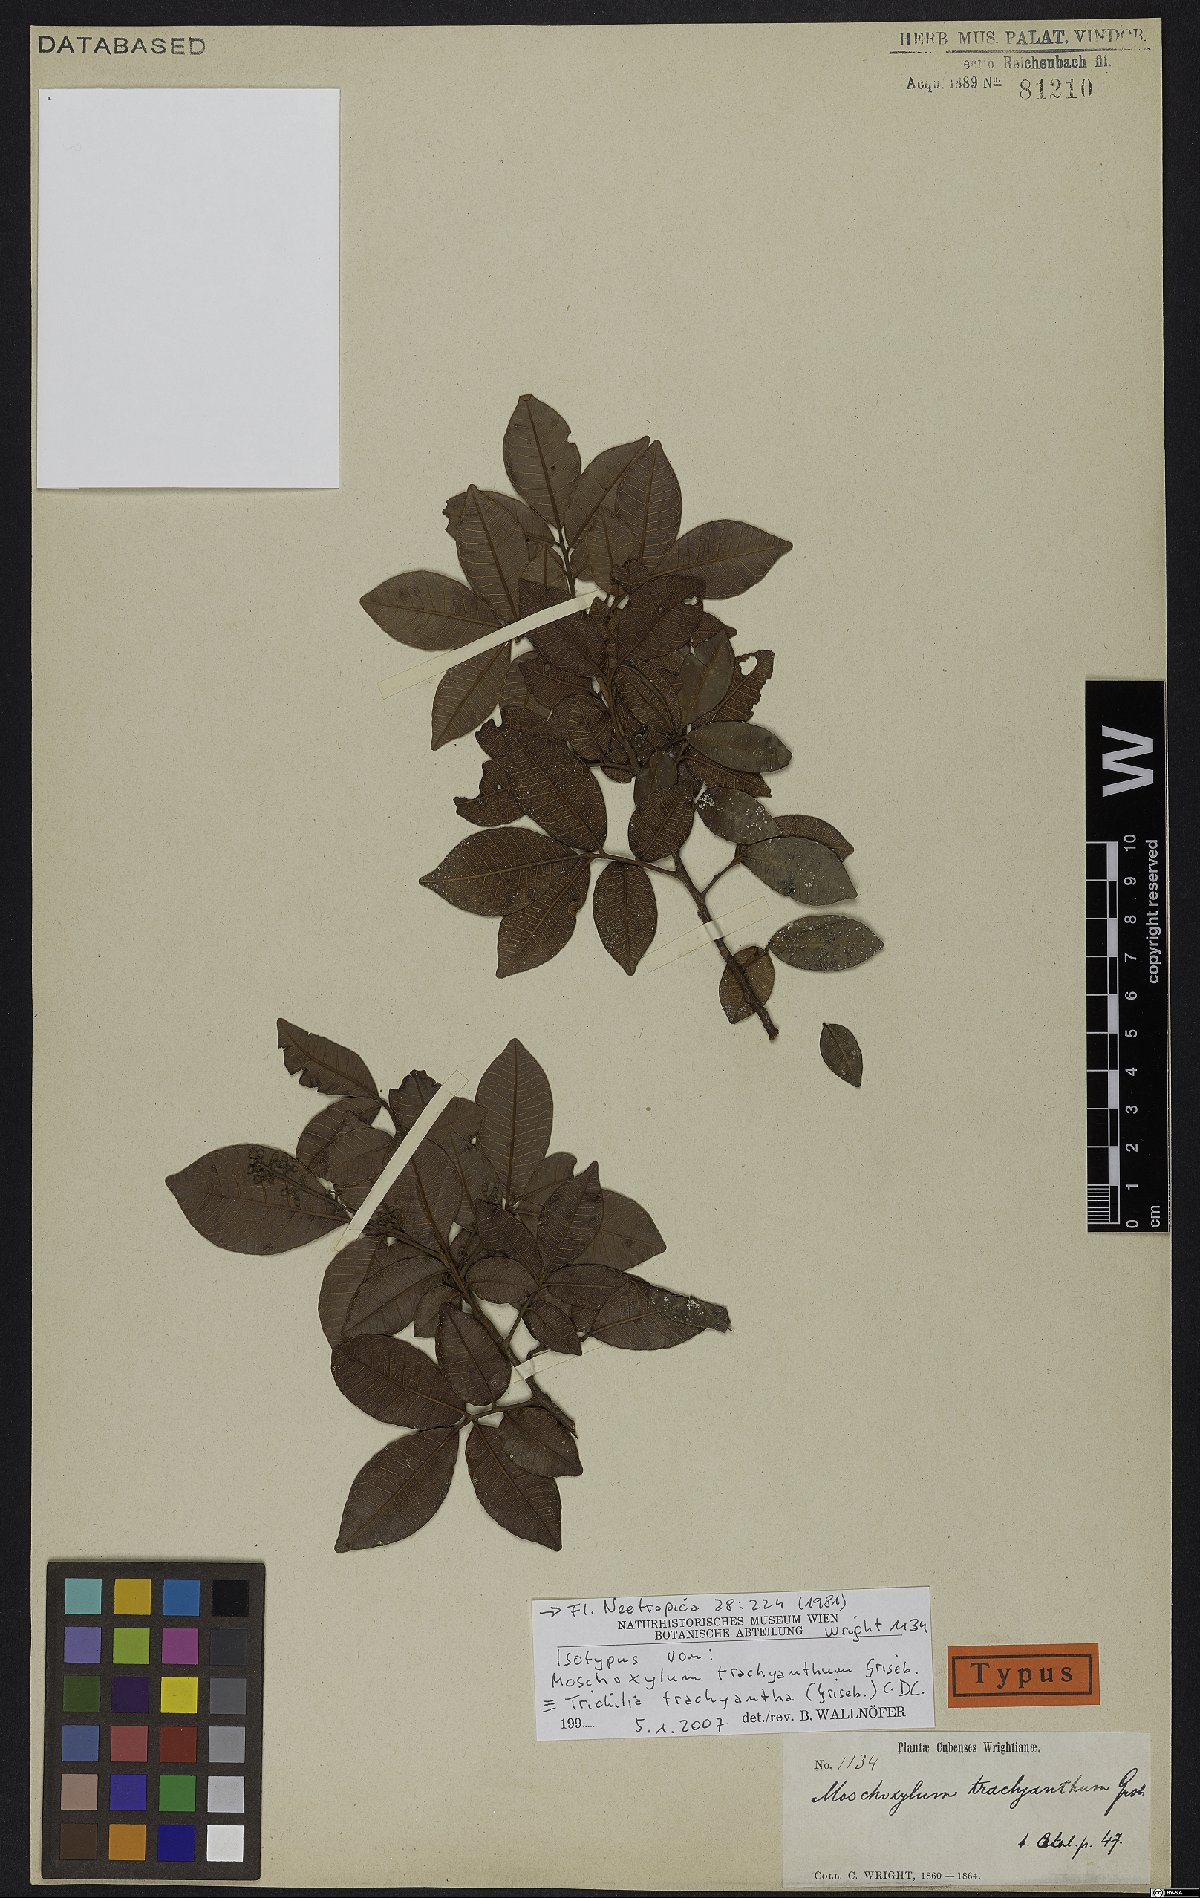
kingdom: Plantae
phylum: Tracheophyta
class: Magnoliopsida
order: Sapindales
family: Meliaceae
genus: Trichilia
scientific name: Trichilia trachyantha
